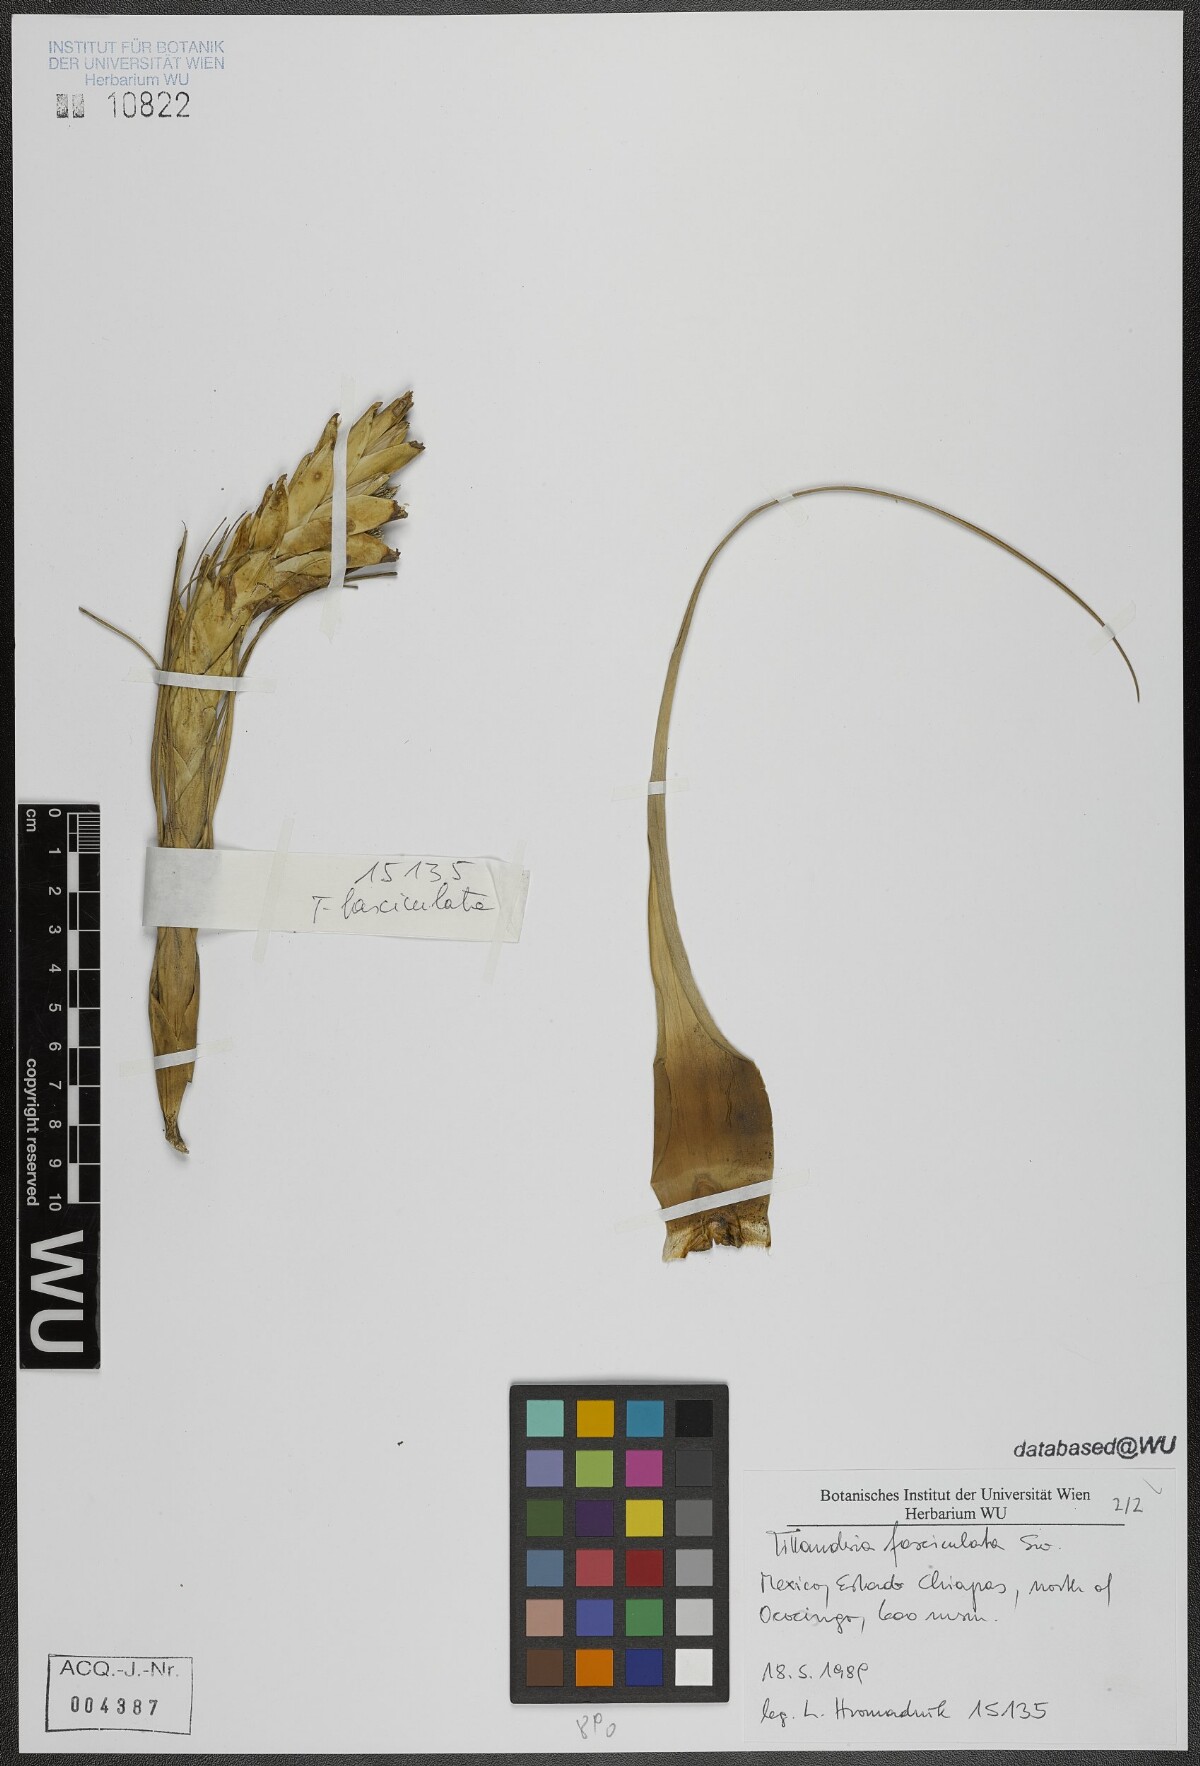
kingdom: Plantae
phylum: Tracheophyta
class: Liliopsida
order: Poales
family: Bromeliaceae
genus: Tillandsia
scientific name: Tillandsia fasciculata
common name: Giant airplant
